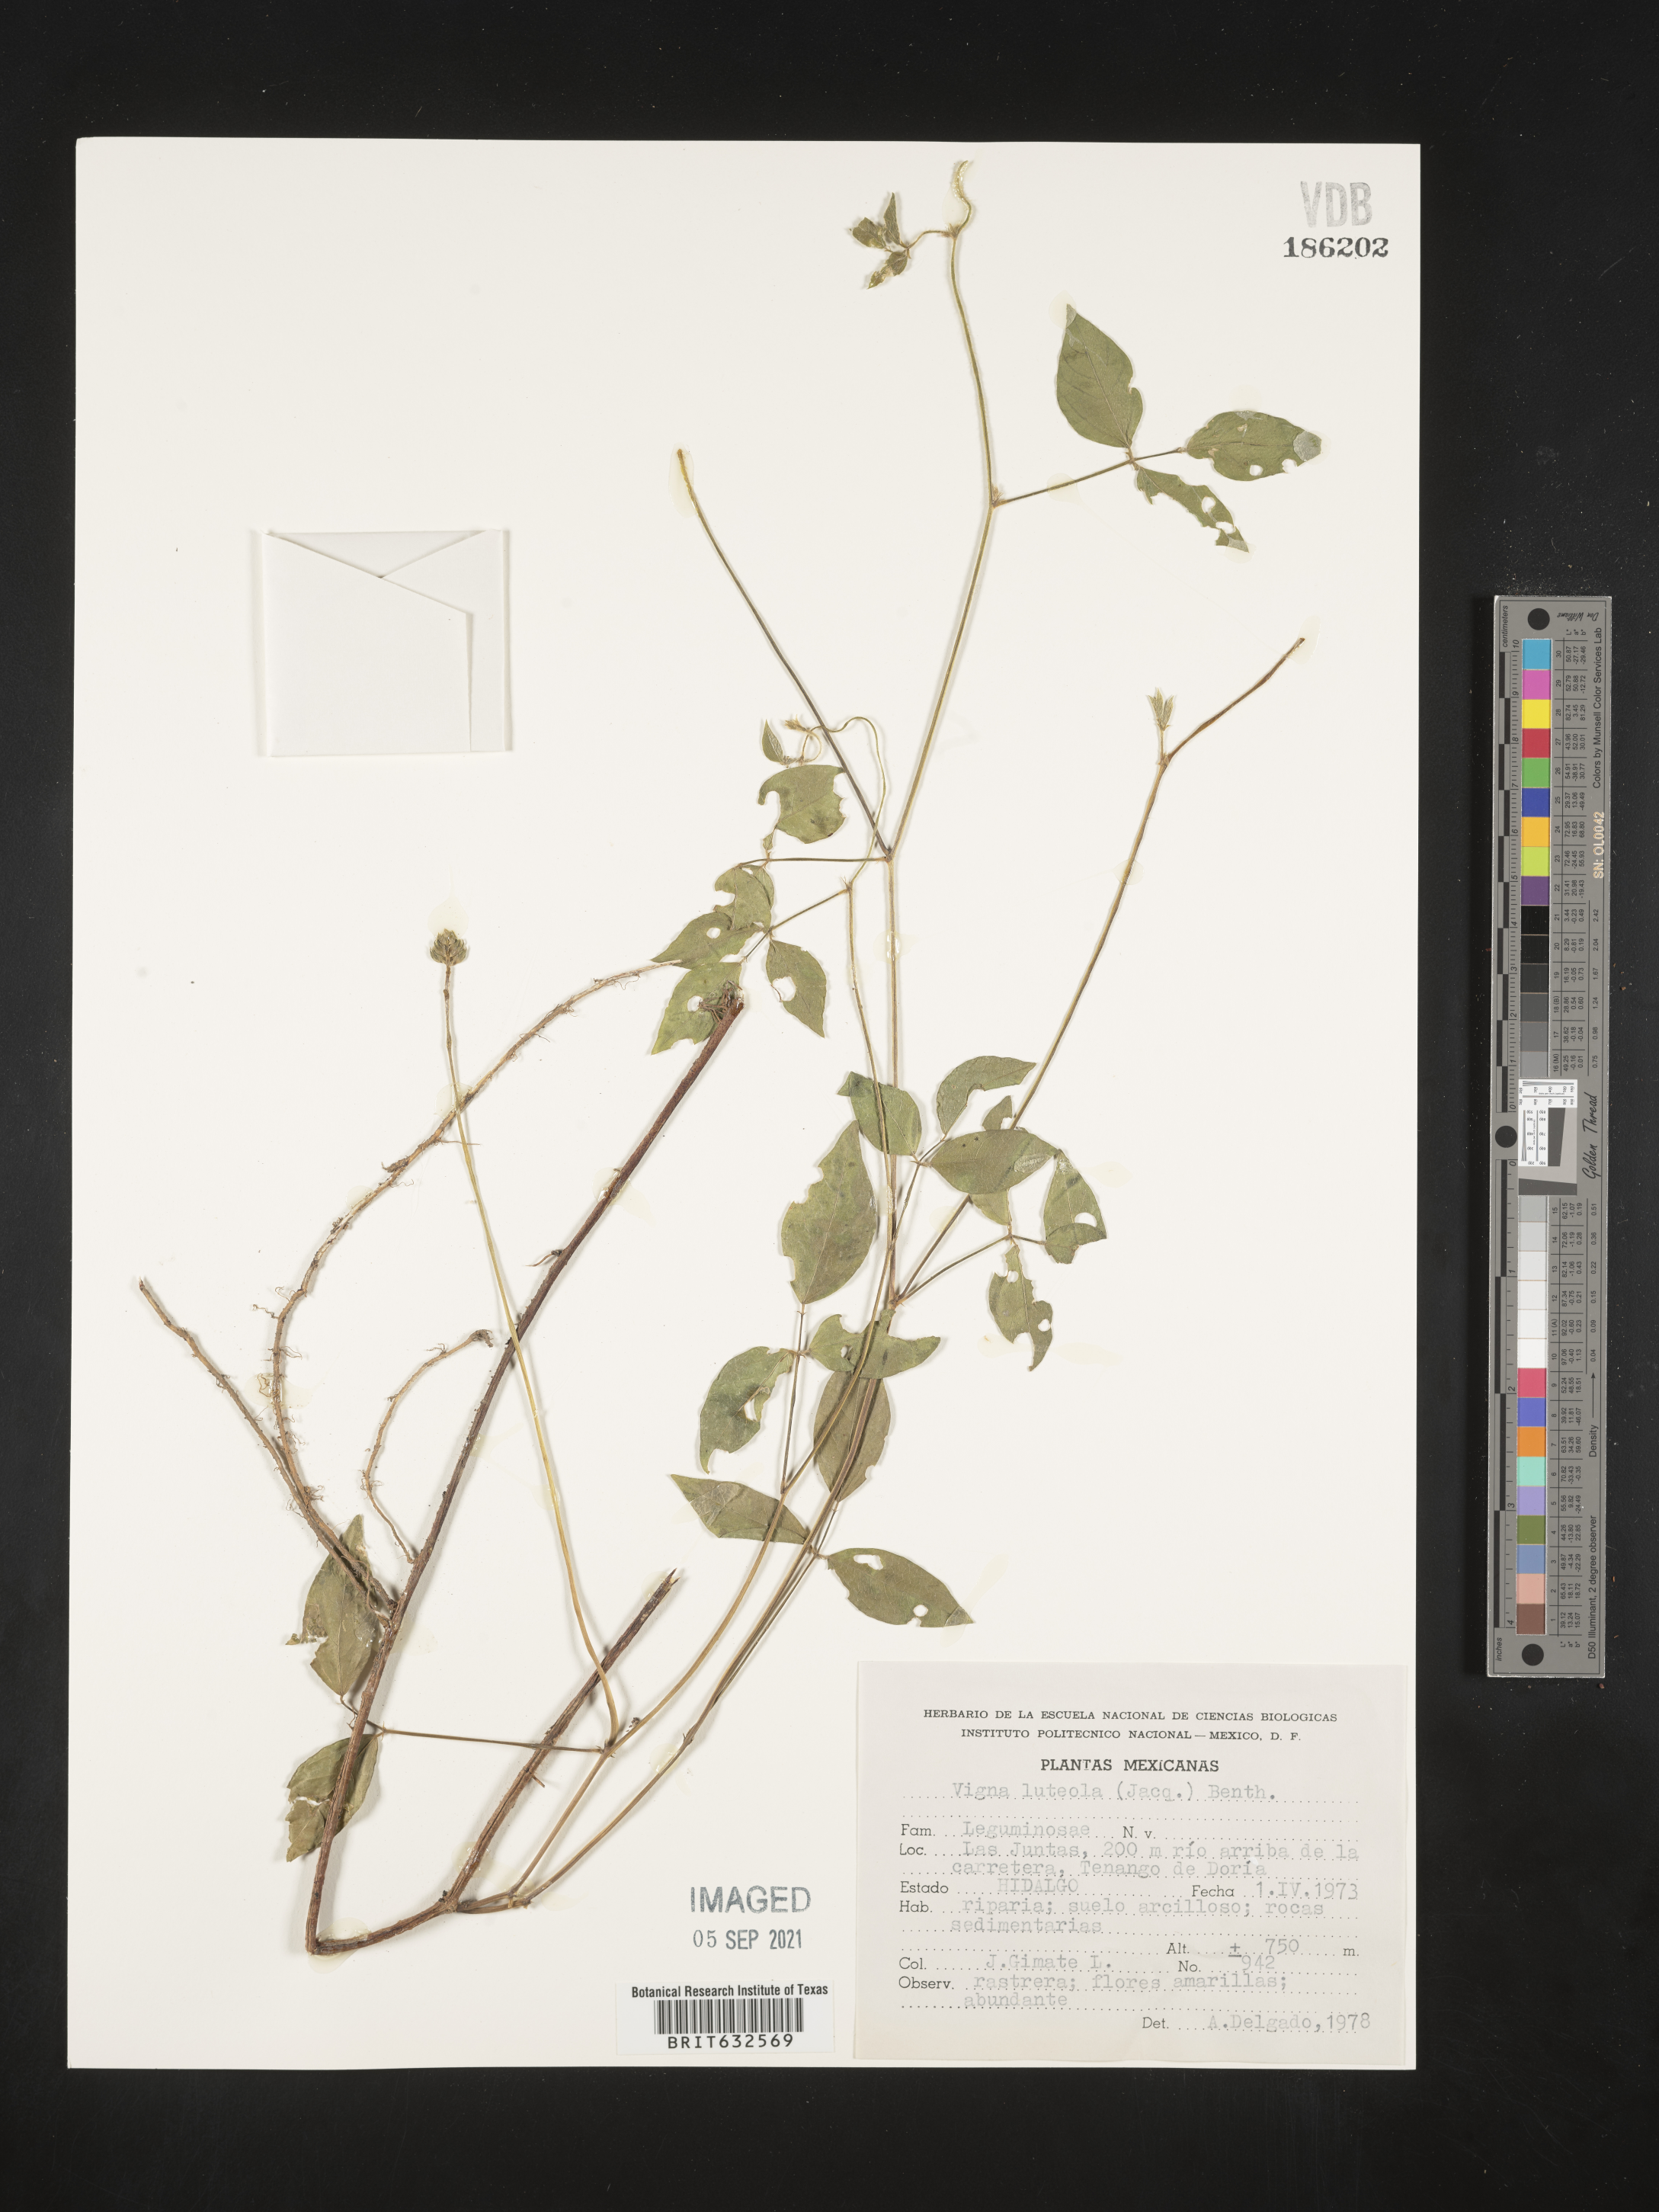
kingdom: Plantae
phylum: Tracheophyta
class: Magnoliopsida
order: Fabales
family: Fabaceae
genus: Vigna
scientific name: Vigna luteola
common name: Hairypod cowpea
